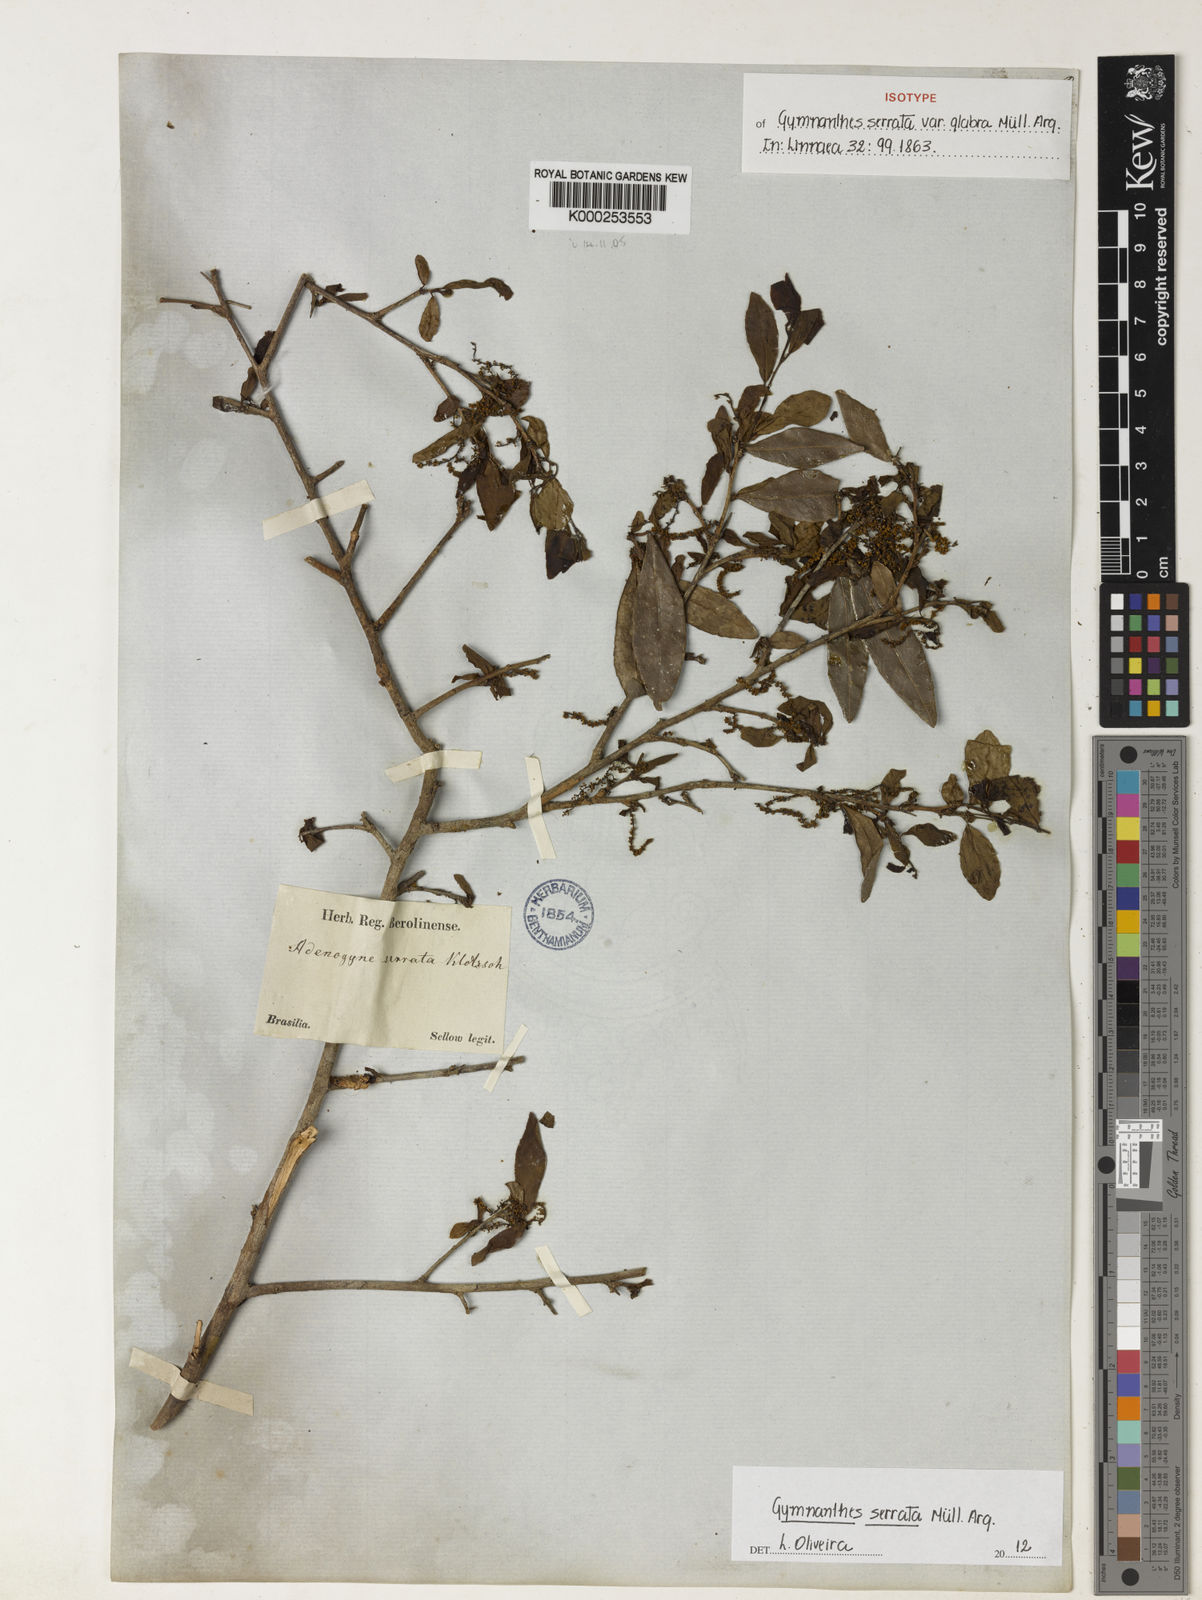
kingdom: Plantae
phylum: Tracheophyta
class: Magnoliopsida
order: Malpighiales
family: Euphorbiaceae
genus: Gymnanthes
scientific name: Gymnanthes
